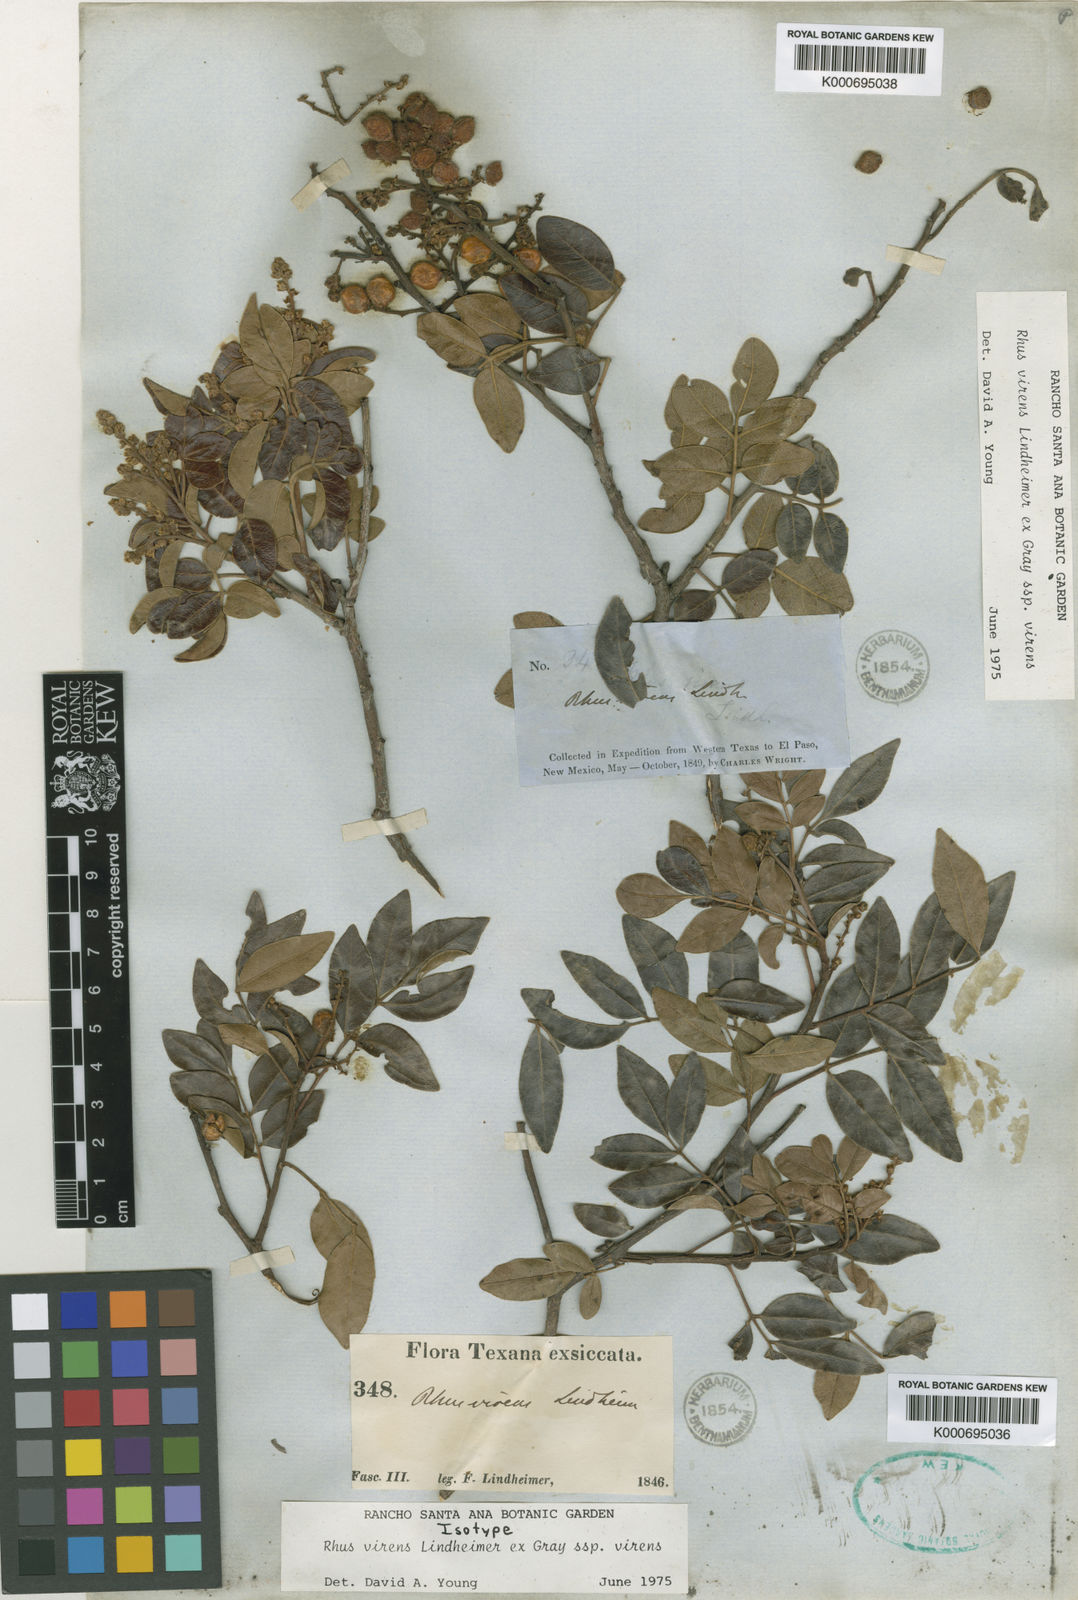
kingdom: Plantae
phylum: Tracheophyta
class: Magnoliopsida
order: Sapindales
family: Anacardiaceae
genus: Rhus
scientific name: Rhus virens
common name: Evergreen sumac
